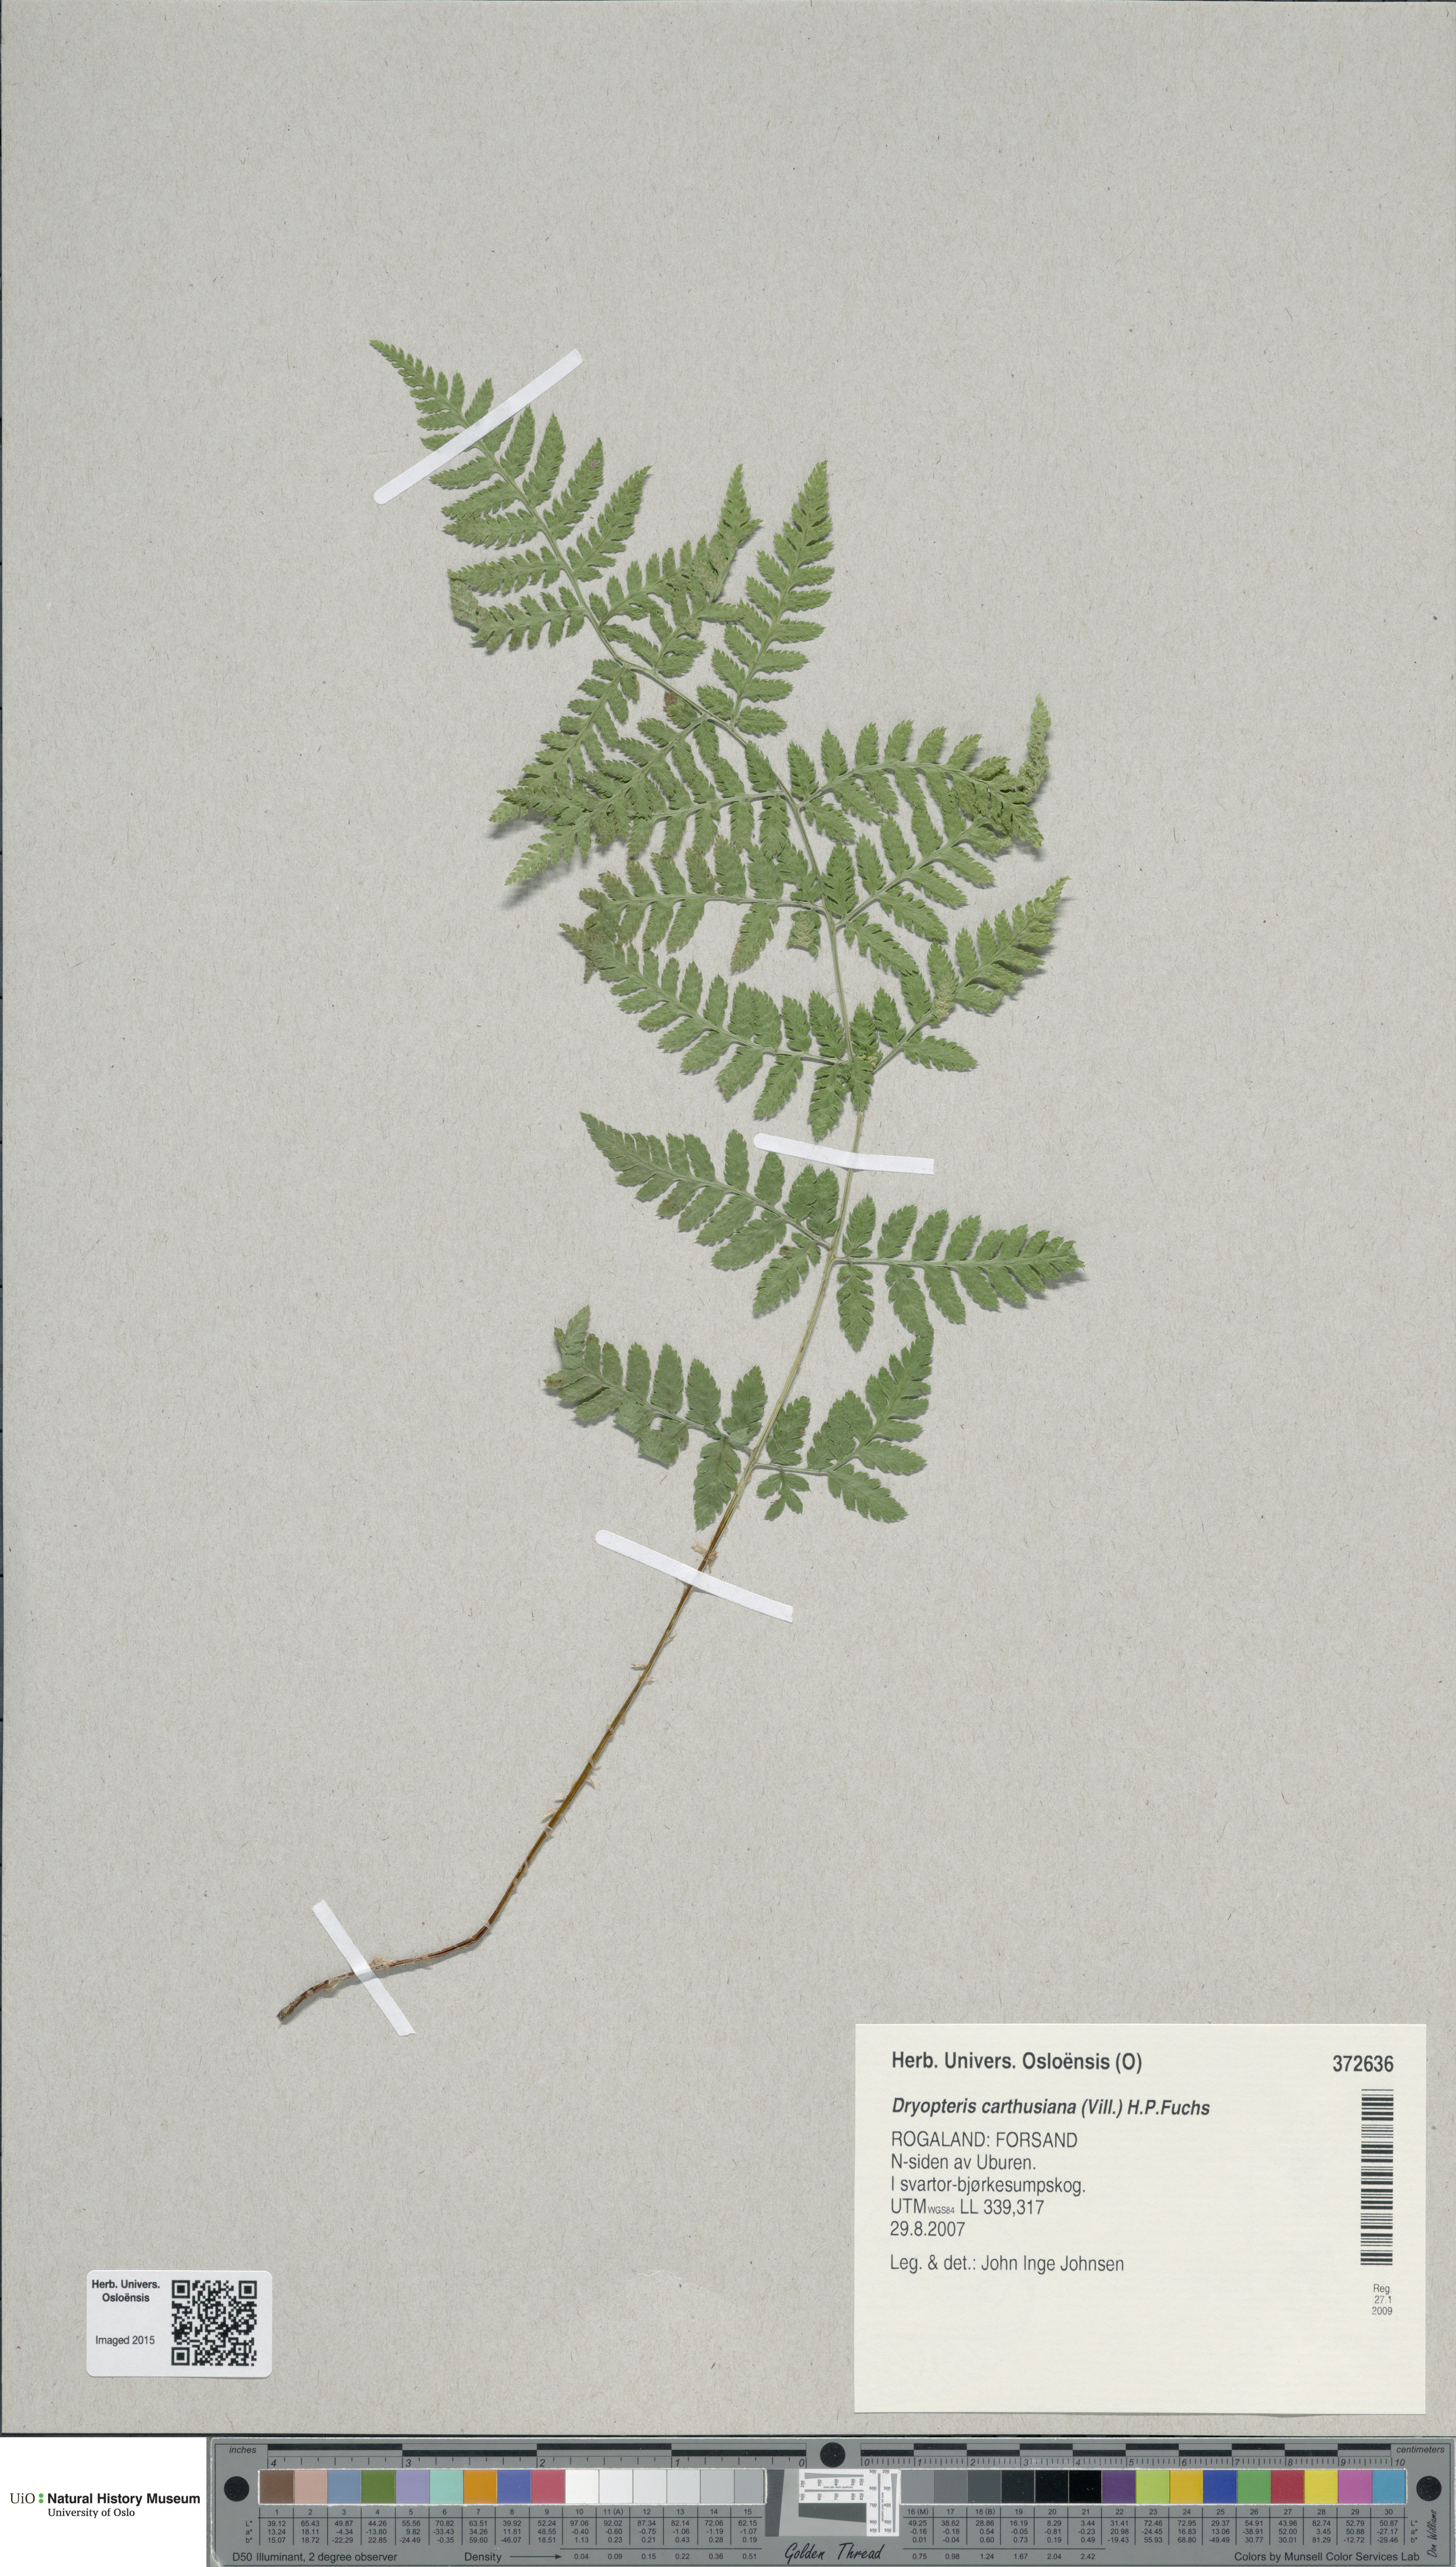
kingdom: Plantae
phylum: Tracheophyta
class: Polypodiopsida
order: Polypodiales
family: Dryopteridaceae
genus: Dryopteris
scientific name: Dryopteris carthusiana
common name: Narrow buckler-fern
